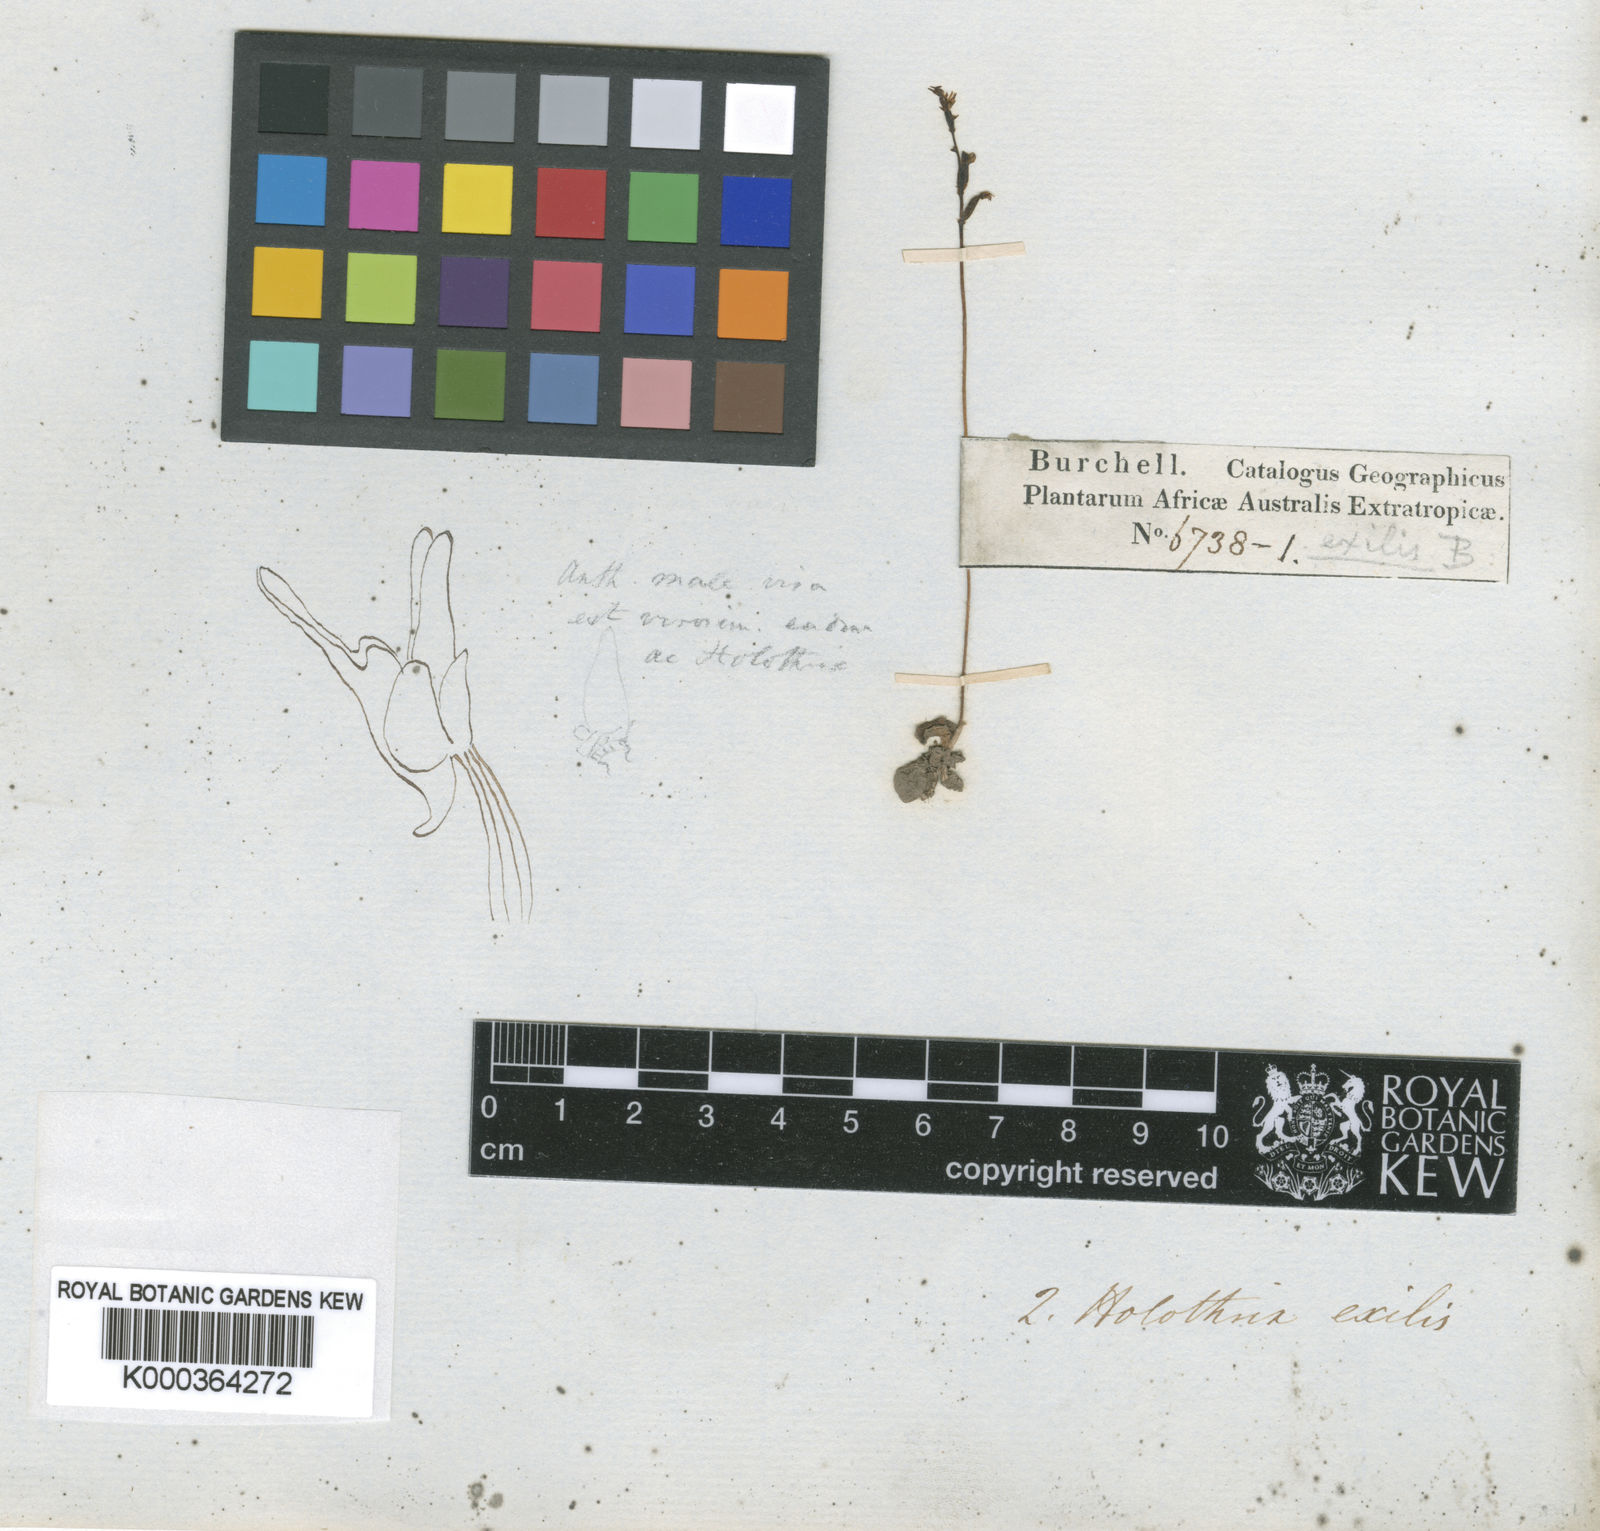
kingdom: Plantae
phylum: Tracheophyta
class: Liliopsida
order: Asparagales
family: Orchidaceae
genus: Holothrix
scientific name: Holothrix exilis
